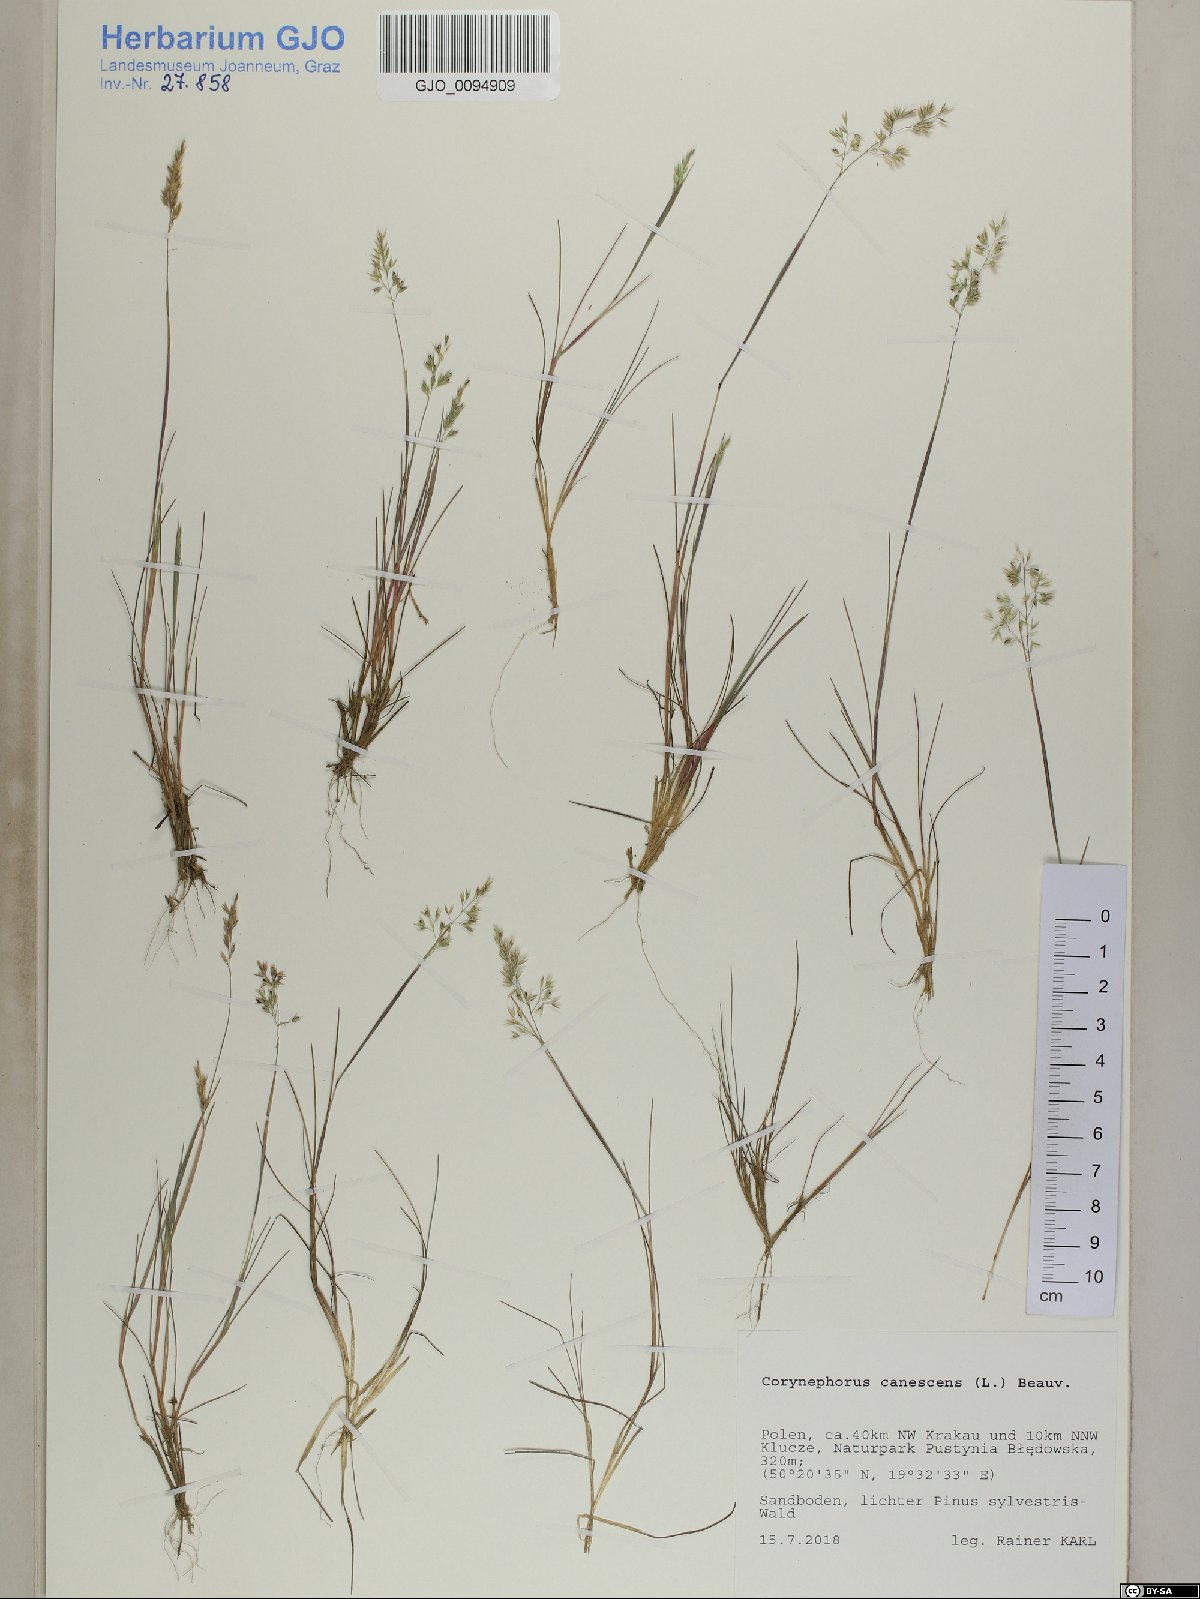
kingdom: Plantae
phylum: Tracheophyta
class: Liliopsida
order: Poales
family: Poaceae
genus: Corynephorus
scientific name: Corynephorus canescens
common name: Grey hair-grass
